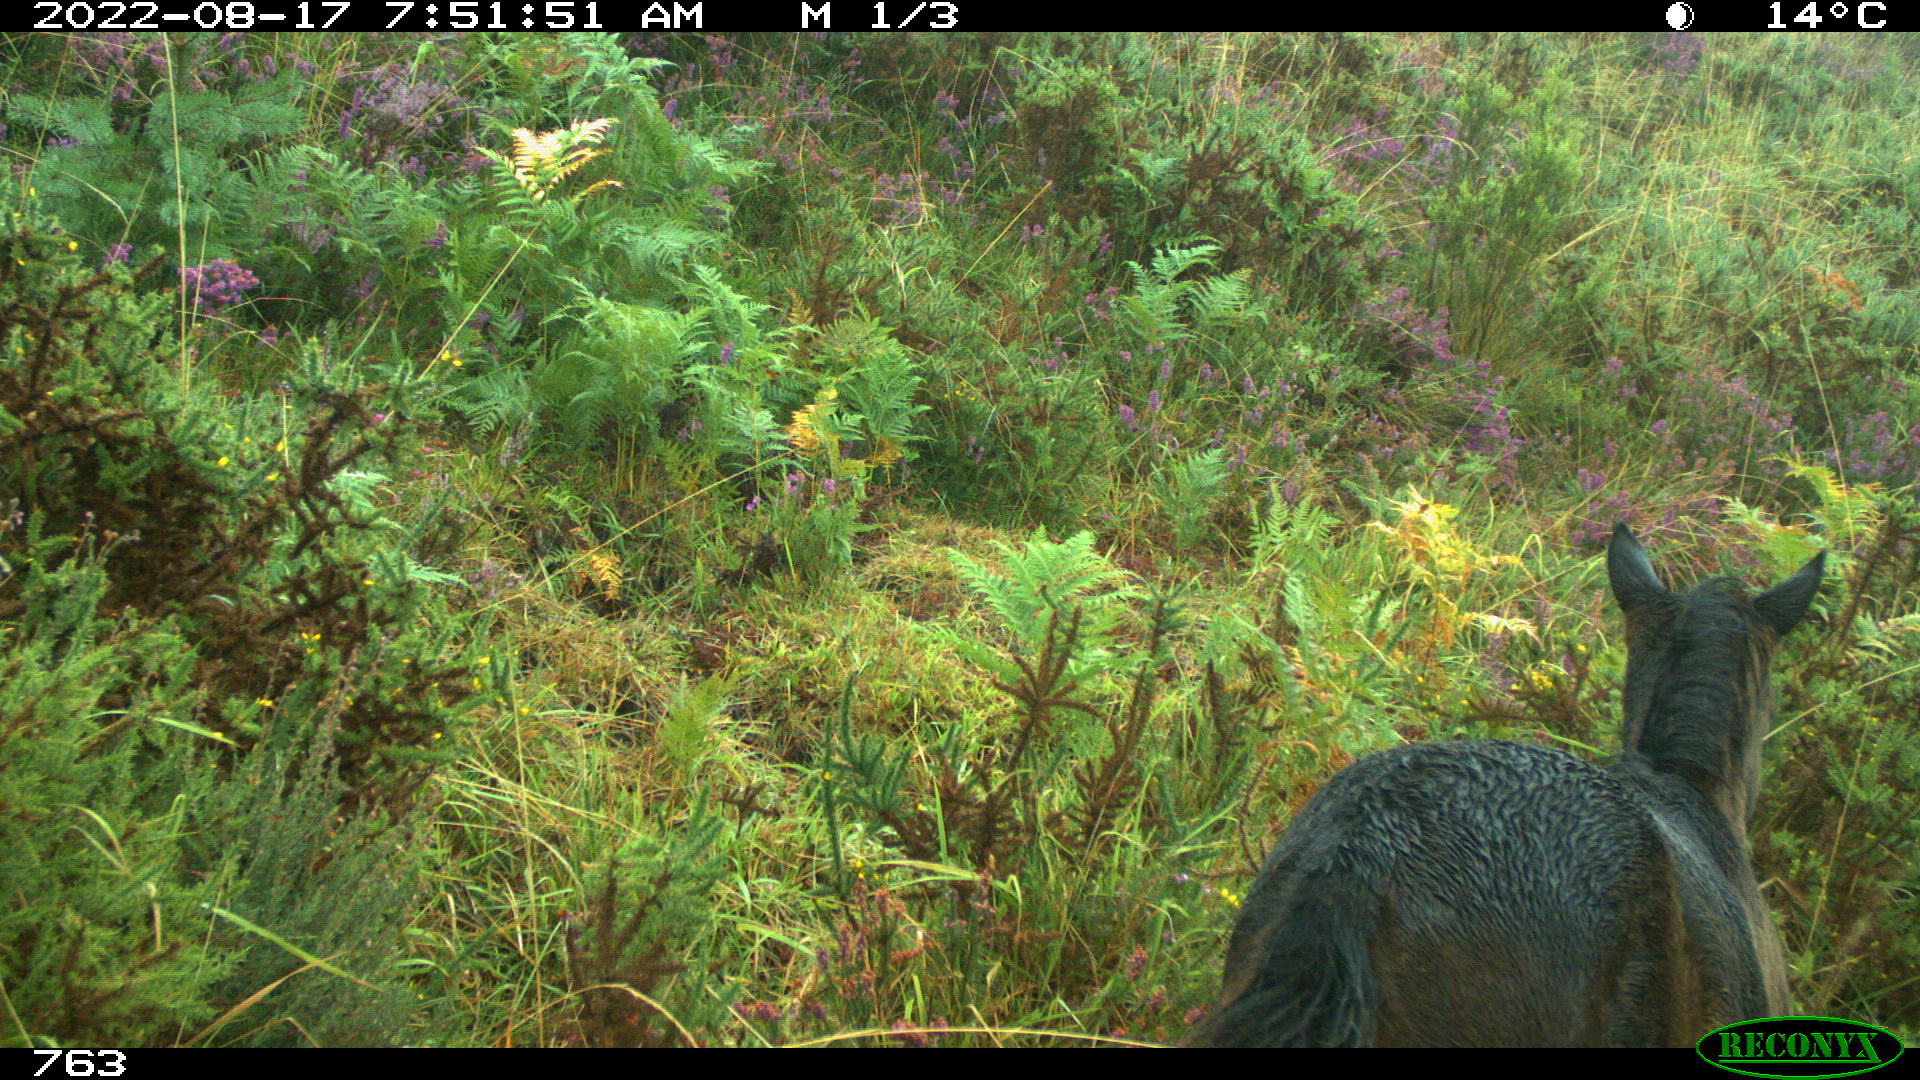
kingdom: Animalia
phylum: Chordata
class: Mammalia
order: Perissodactyla
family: Equidae
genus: Equus
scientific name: Equus caballus
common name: Horse
